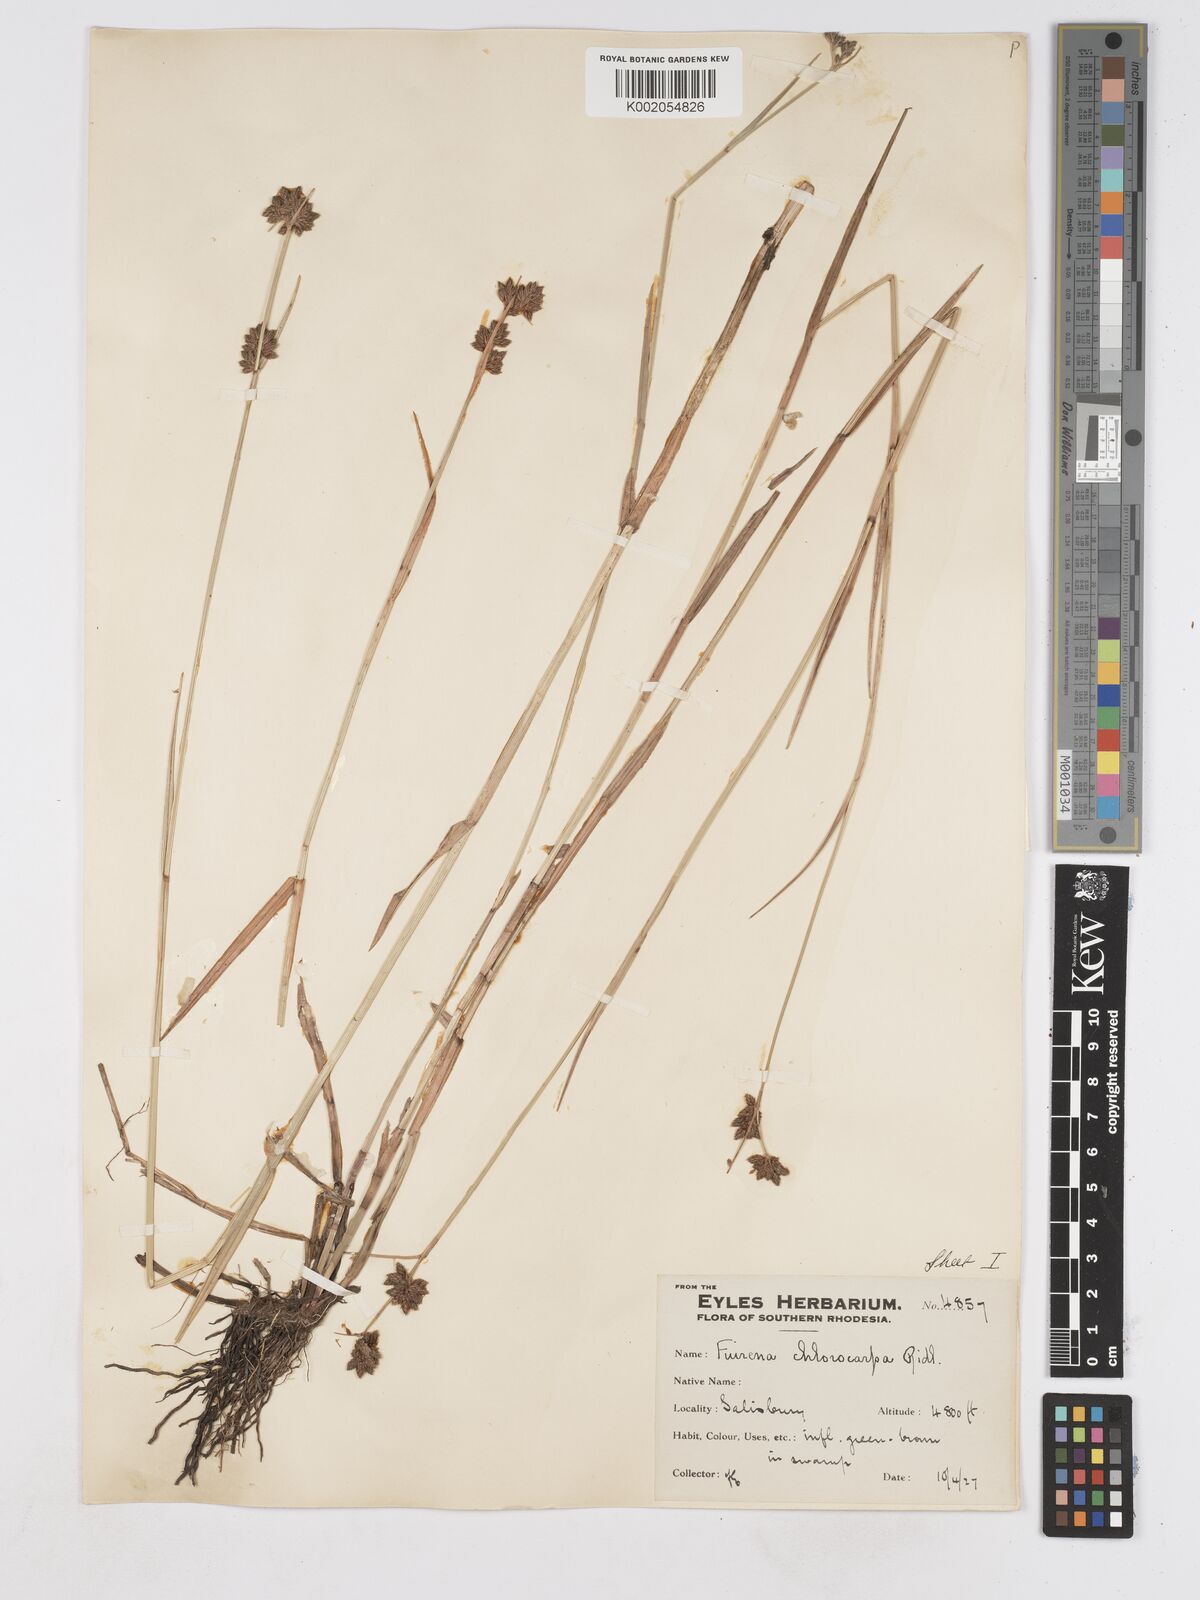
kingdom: Plantae
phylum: Tracheophyta
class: Liliopsida
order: Poales
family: Cyperaceae
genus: Fuirena
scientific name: Fuirena stricta
